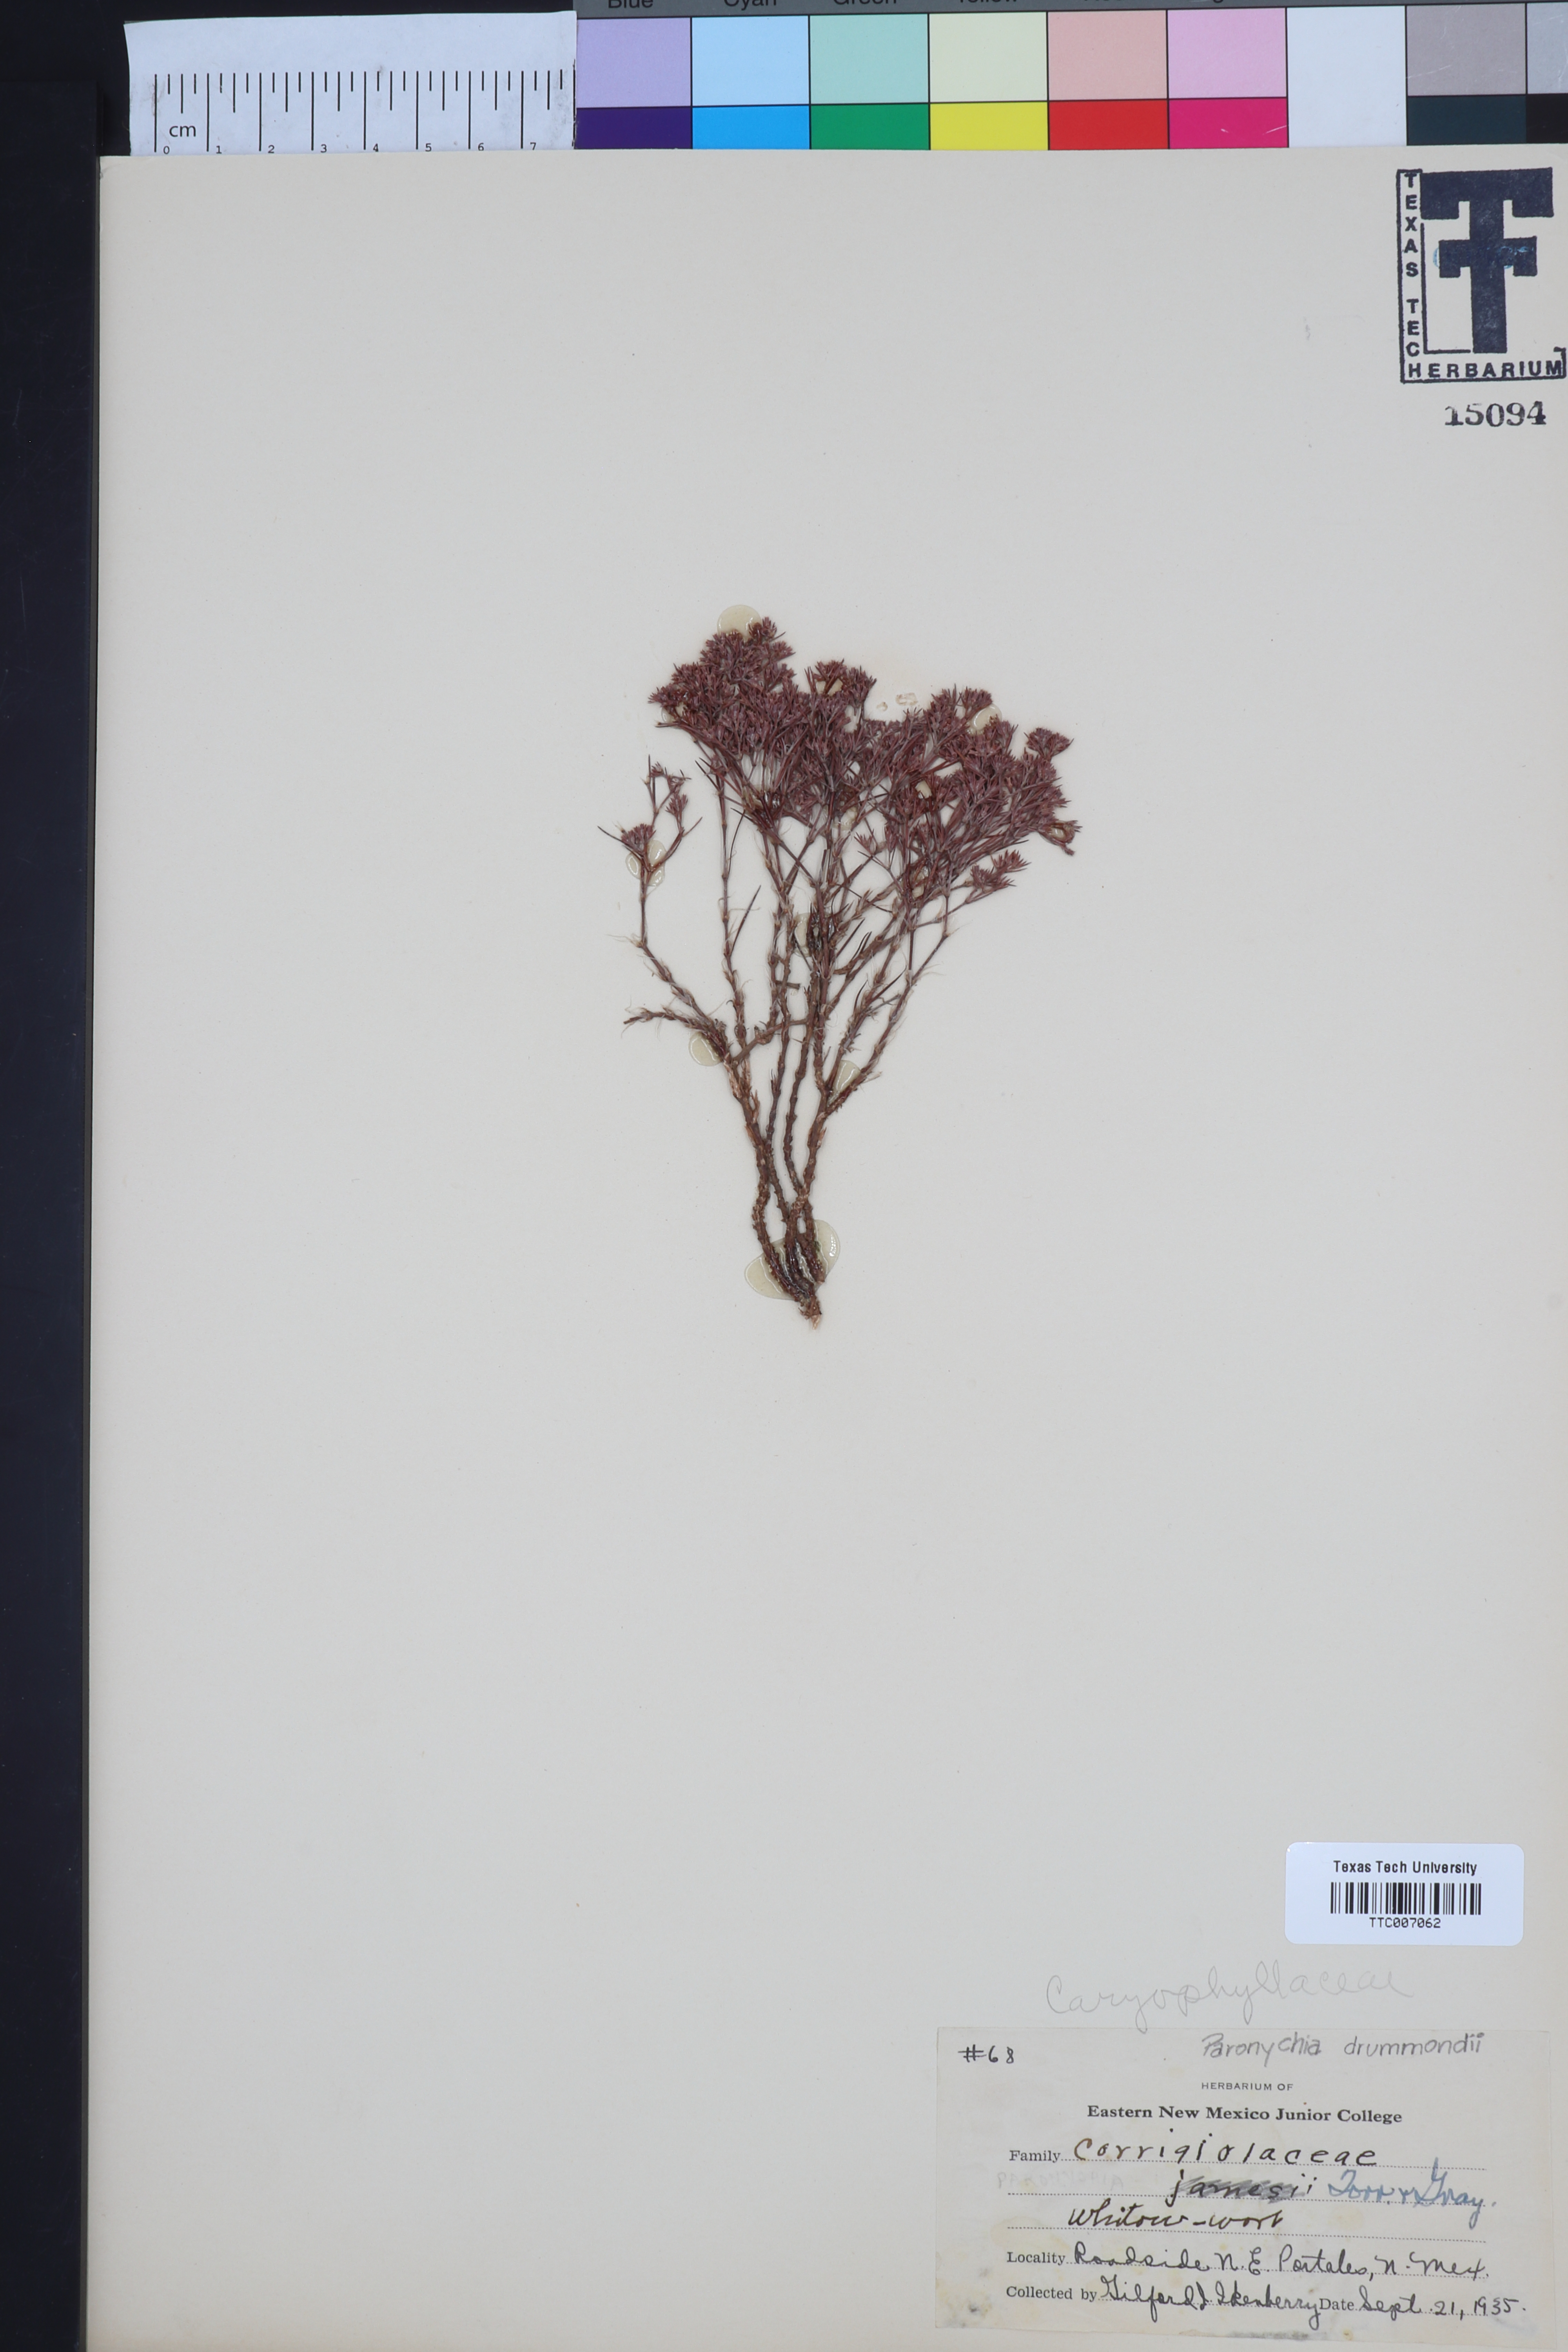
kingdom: Plantae
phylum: Tracheophyta
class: Magnoliopsida
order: Caryophyllales
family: Caryophyllaceae
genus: Paronychia
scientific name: Paronychia jamesii
